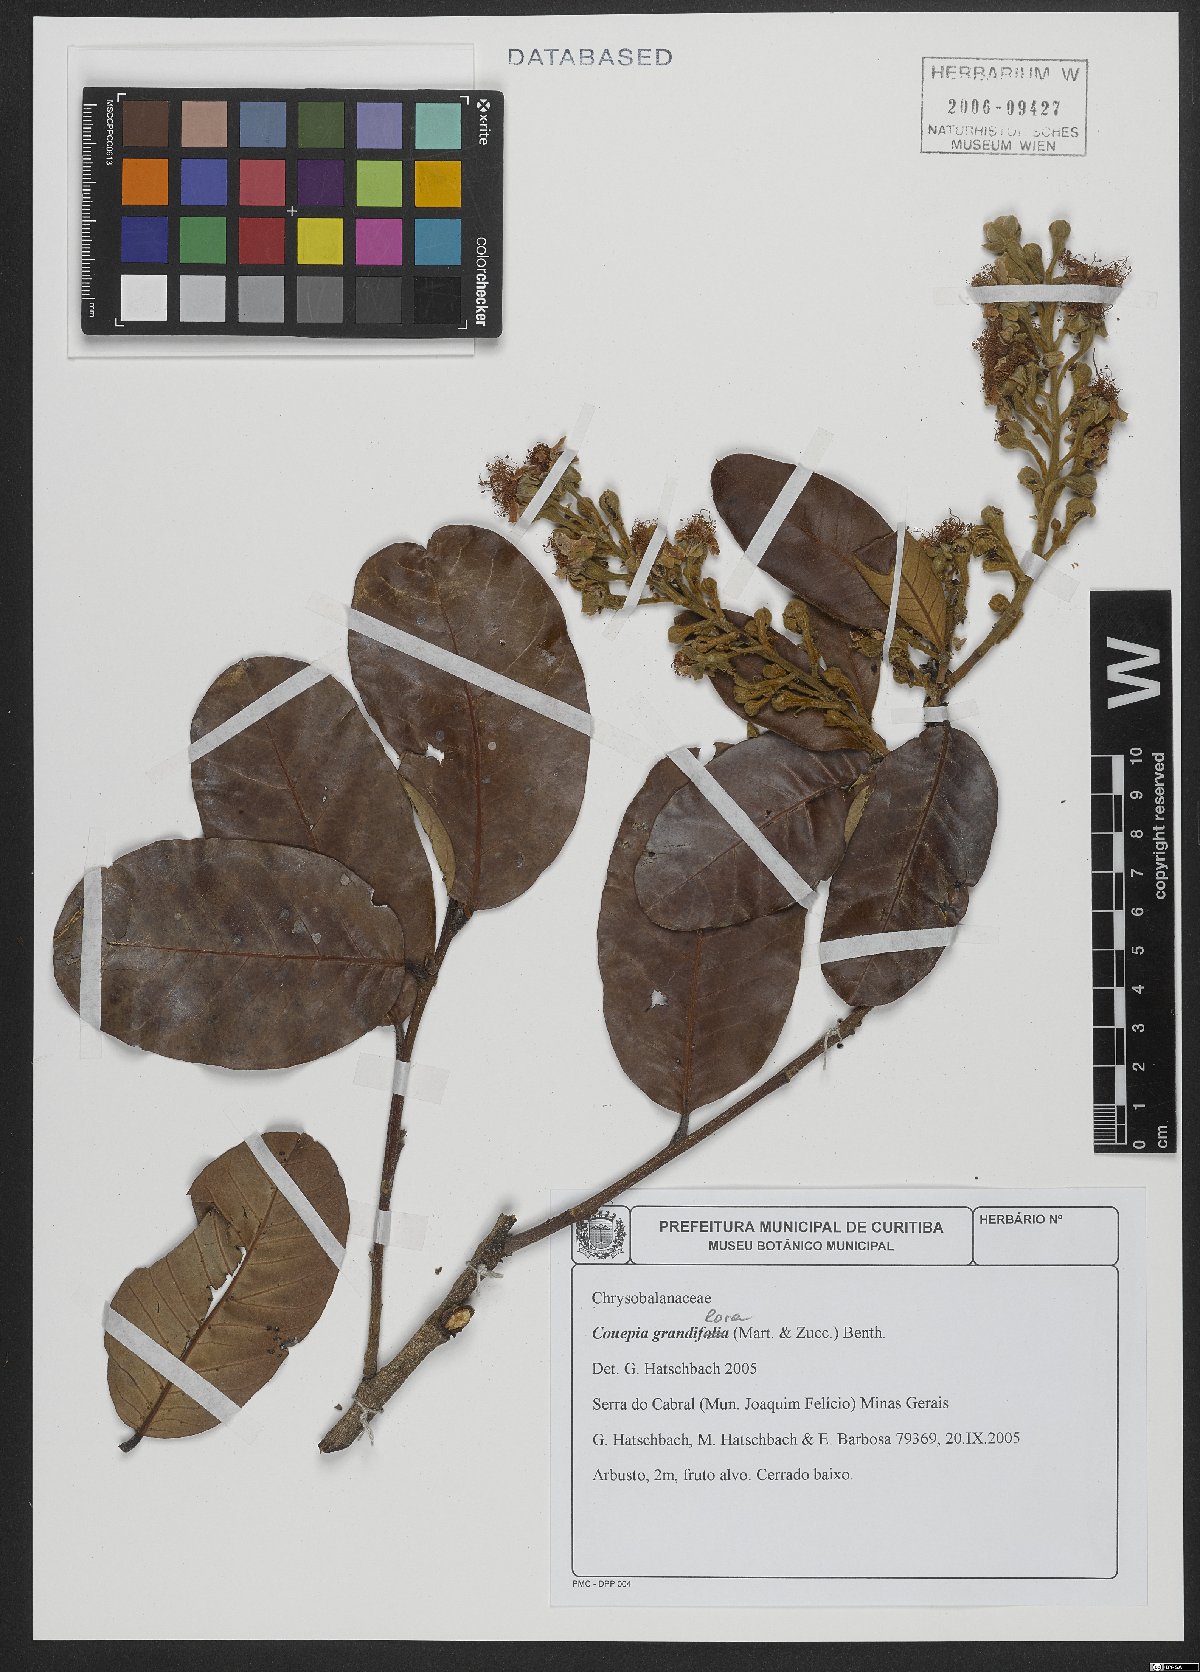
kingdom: Plantae
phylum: Tracheophyta
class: Magnoliopsida
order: Malpighiales
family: Chrysobalanaceae
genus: Couepia
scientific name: Couepia grandiflora
